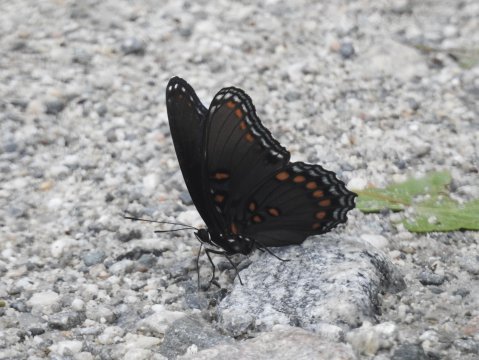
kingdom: Animalia
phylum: Arthropoda
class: Insecta
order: Lepidoptera
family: Nymphalidae
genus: Limenitis
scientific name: Limenitis arthemis
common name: Red-spotted Admiral
